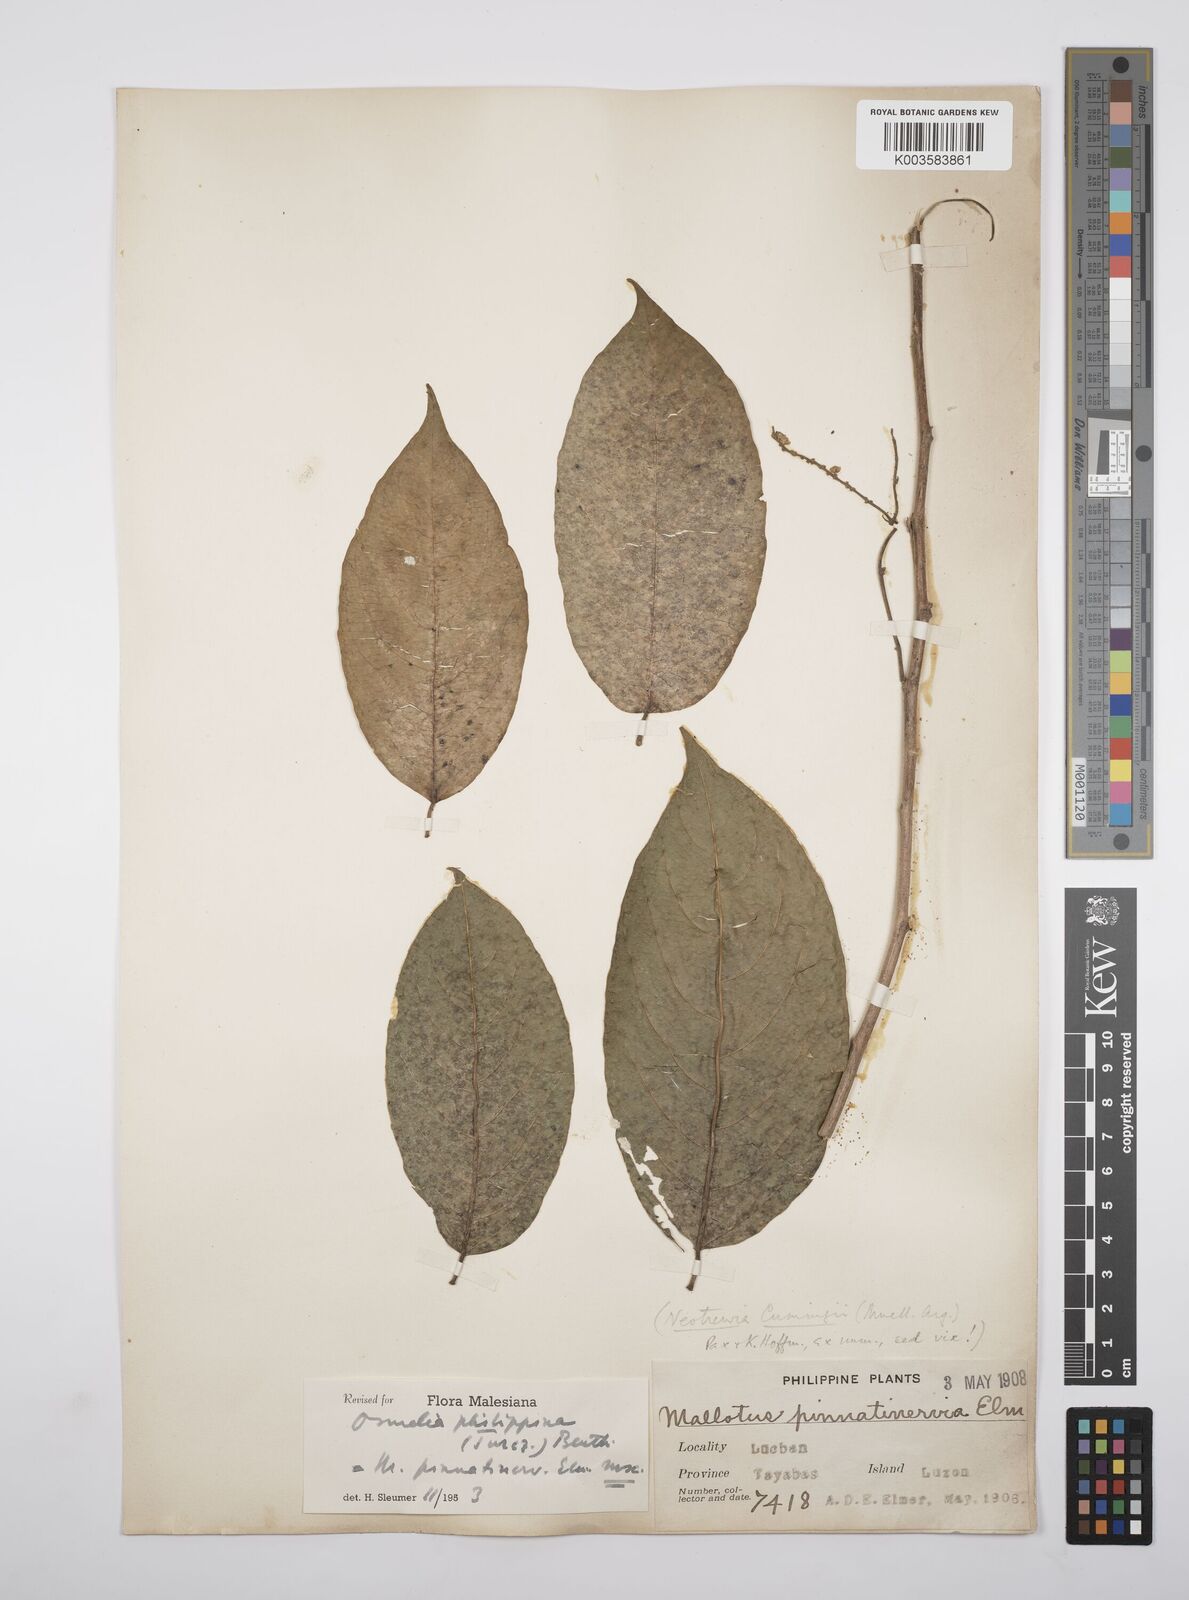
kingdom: Plantae
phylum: Tracheophyta
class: Magnoliopsida
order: Malpighiales
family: Salicaceae
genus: Osmelia
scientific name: Osmelia philippina
